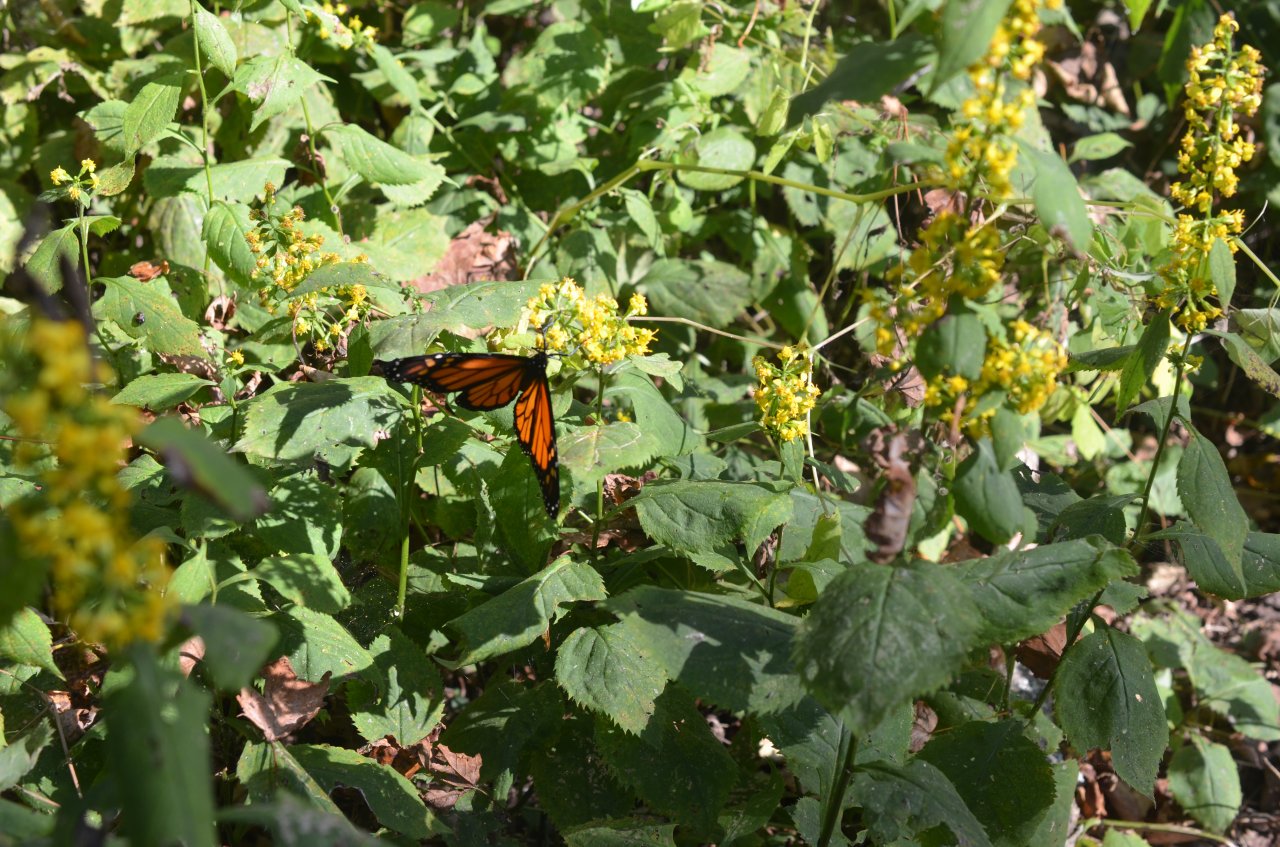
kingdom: Animalia
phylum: Arthropoda
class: Insecta
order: Lepidoptera
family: Nymphalidae
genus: Danaus
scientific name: Danaus plexippus
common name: Monarch
